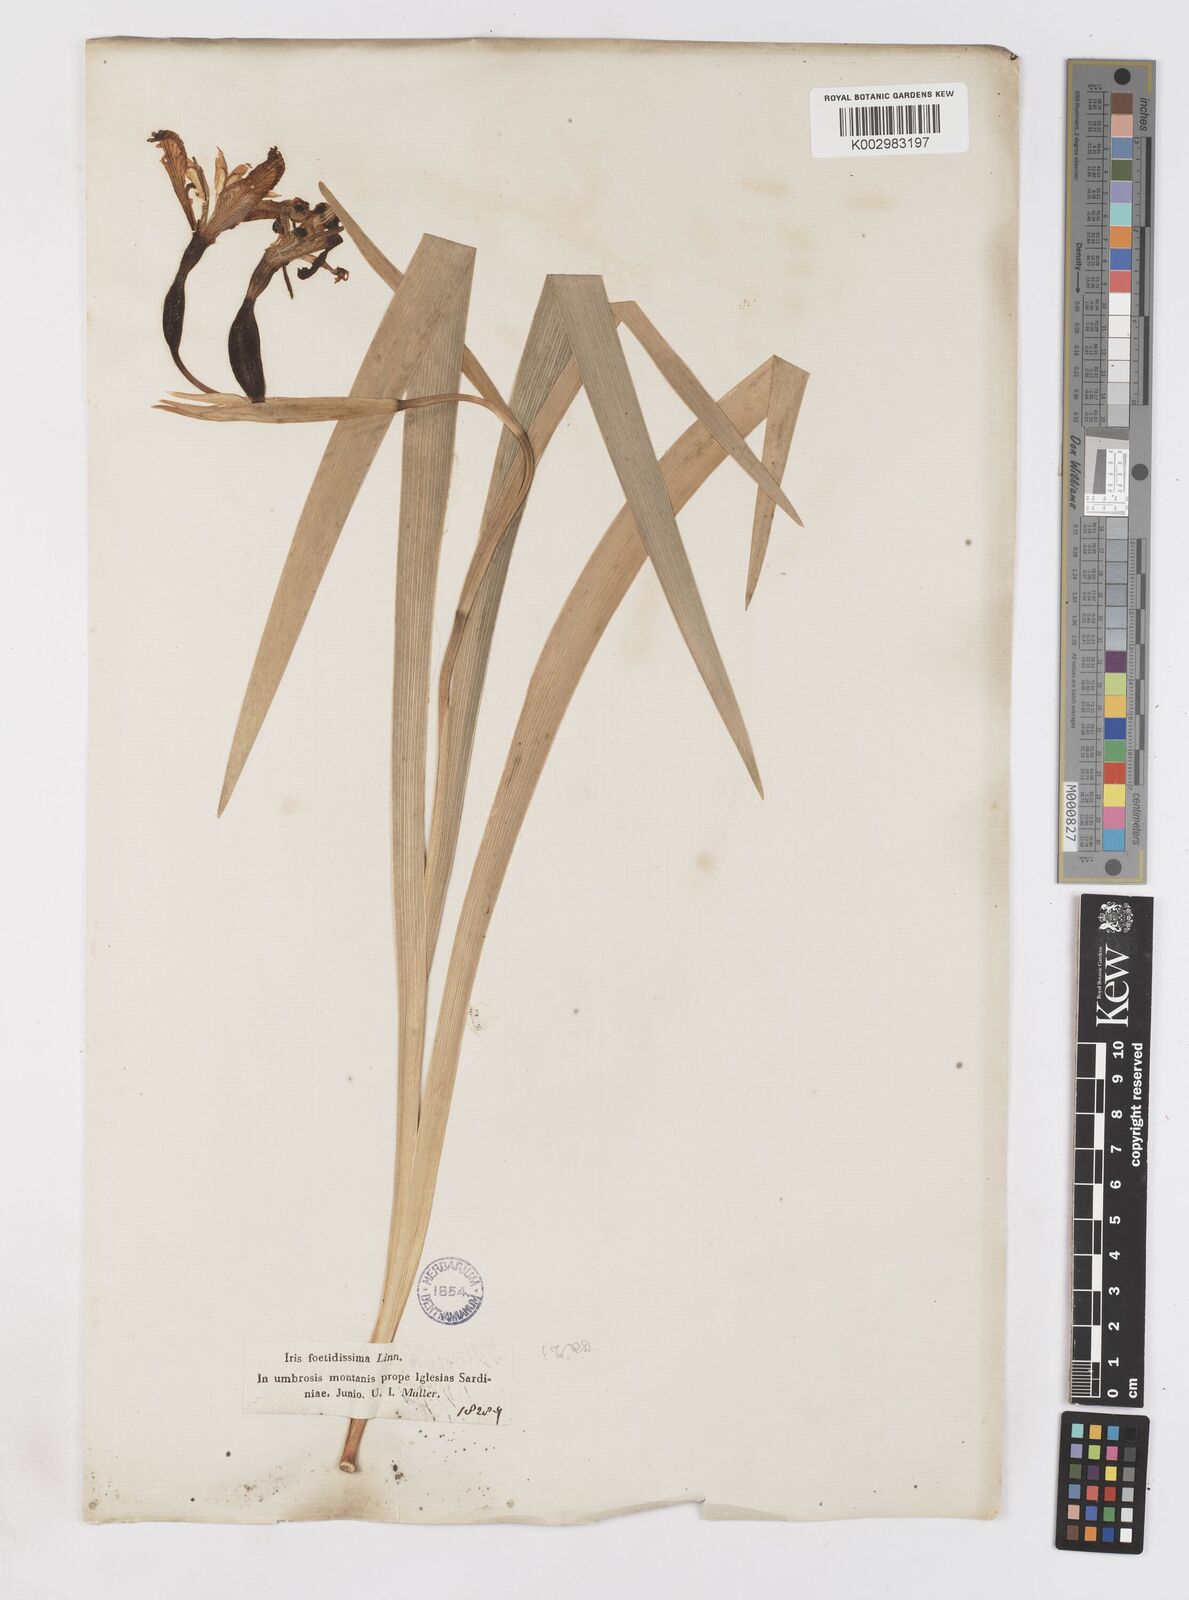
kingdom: Plantae
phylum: Tracheophyta
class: Liliopsida
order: Asparagales
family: Iridaceae
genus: Iris
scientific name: Iris foetidissima
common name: Stinking iris
